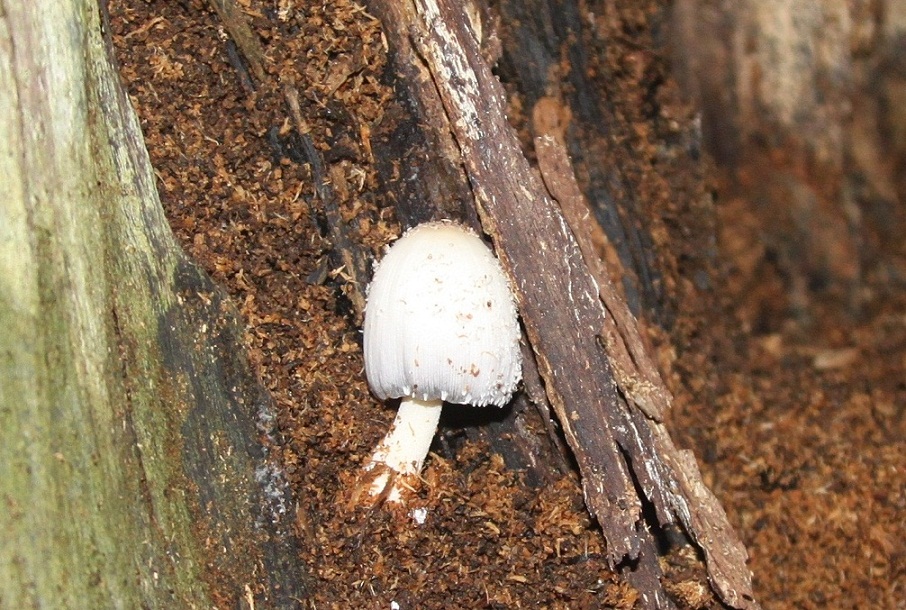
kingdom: Fungi
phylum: Basidiomycota
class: Agaricomycetes
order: Agaricales
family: Psathyrellaceae
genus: Coprinopsis
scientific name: Coprinopsis mitrispora
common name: hul-blækhat
